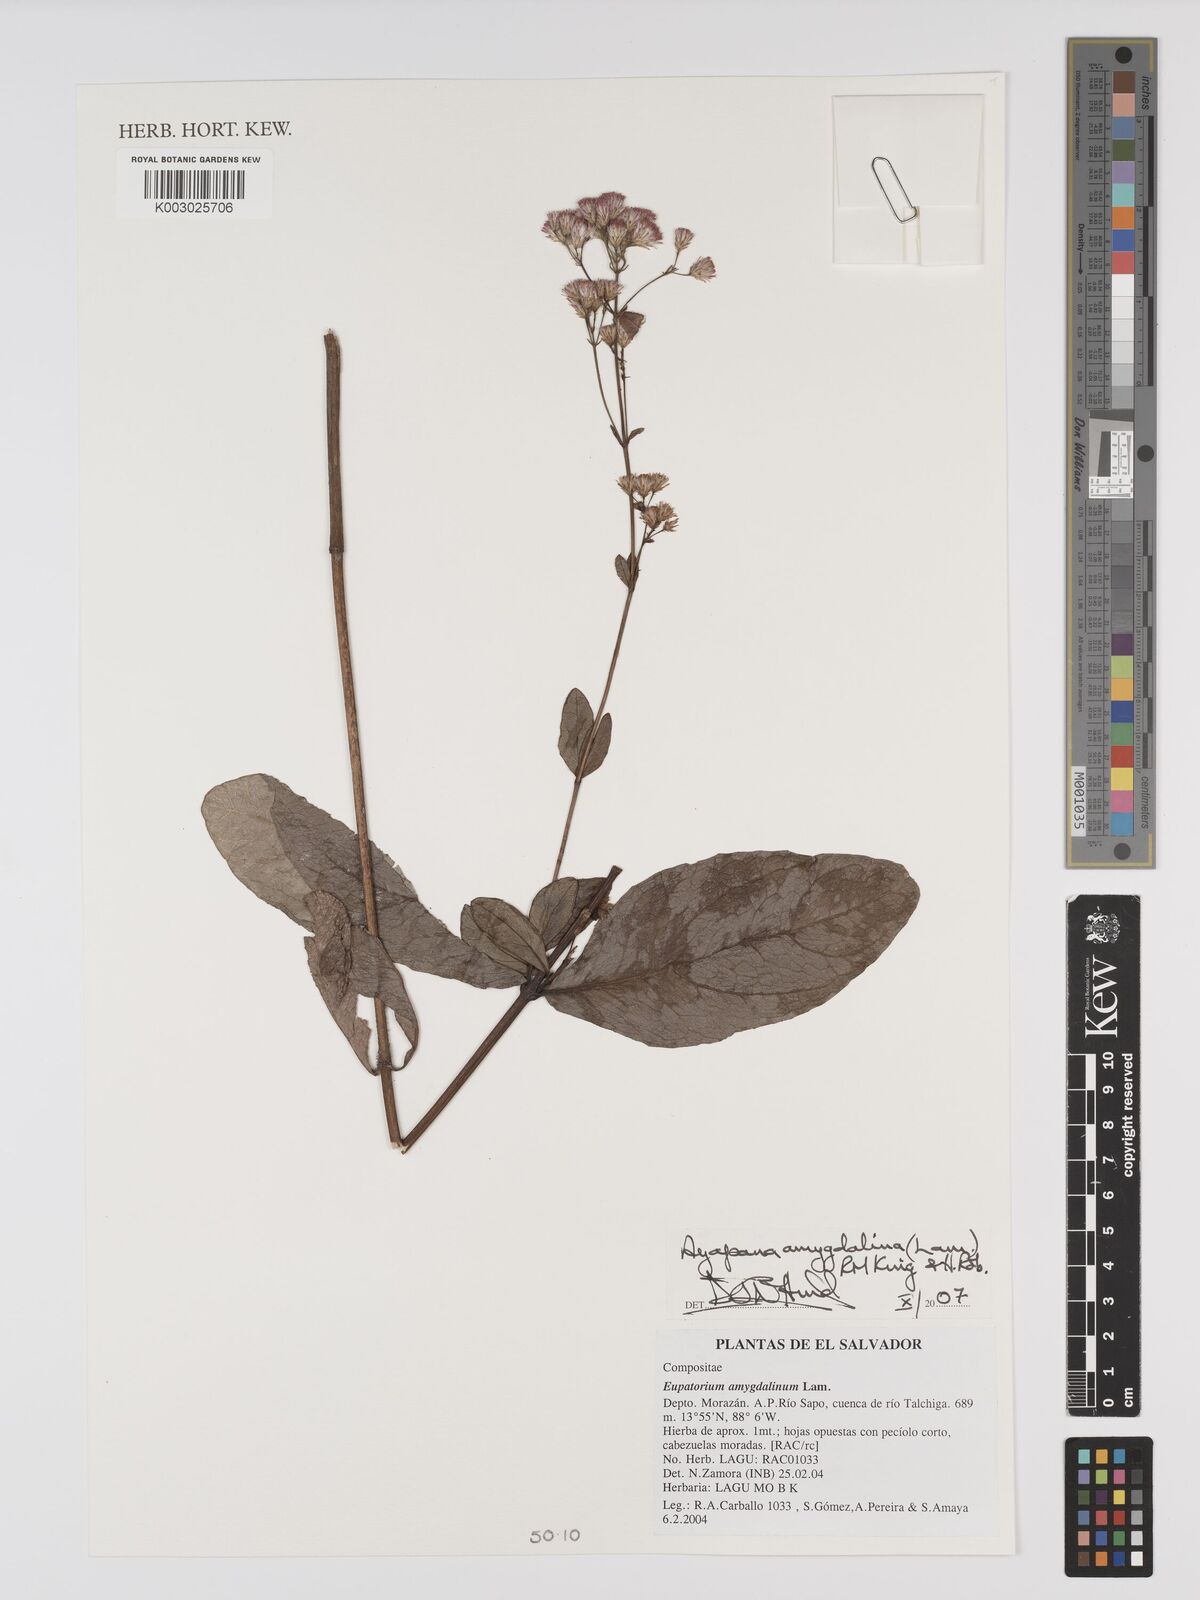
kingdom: Plantae
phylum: Tracheophyta
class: Magnoliopsida
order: Asterales
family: Asteraceae
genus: Ayapana
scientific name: Ayapana amygdalina
